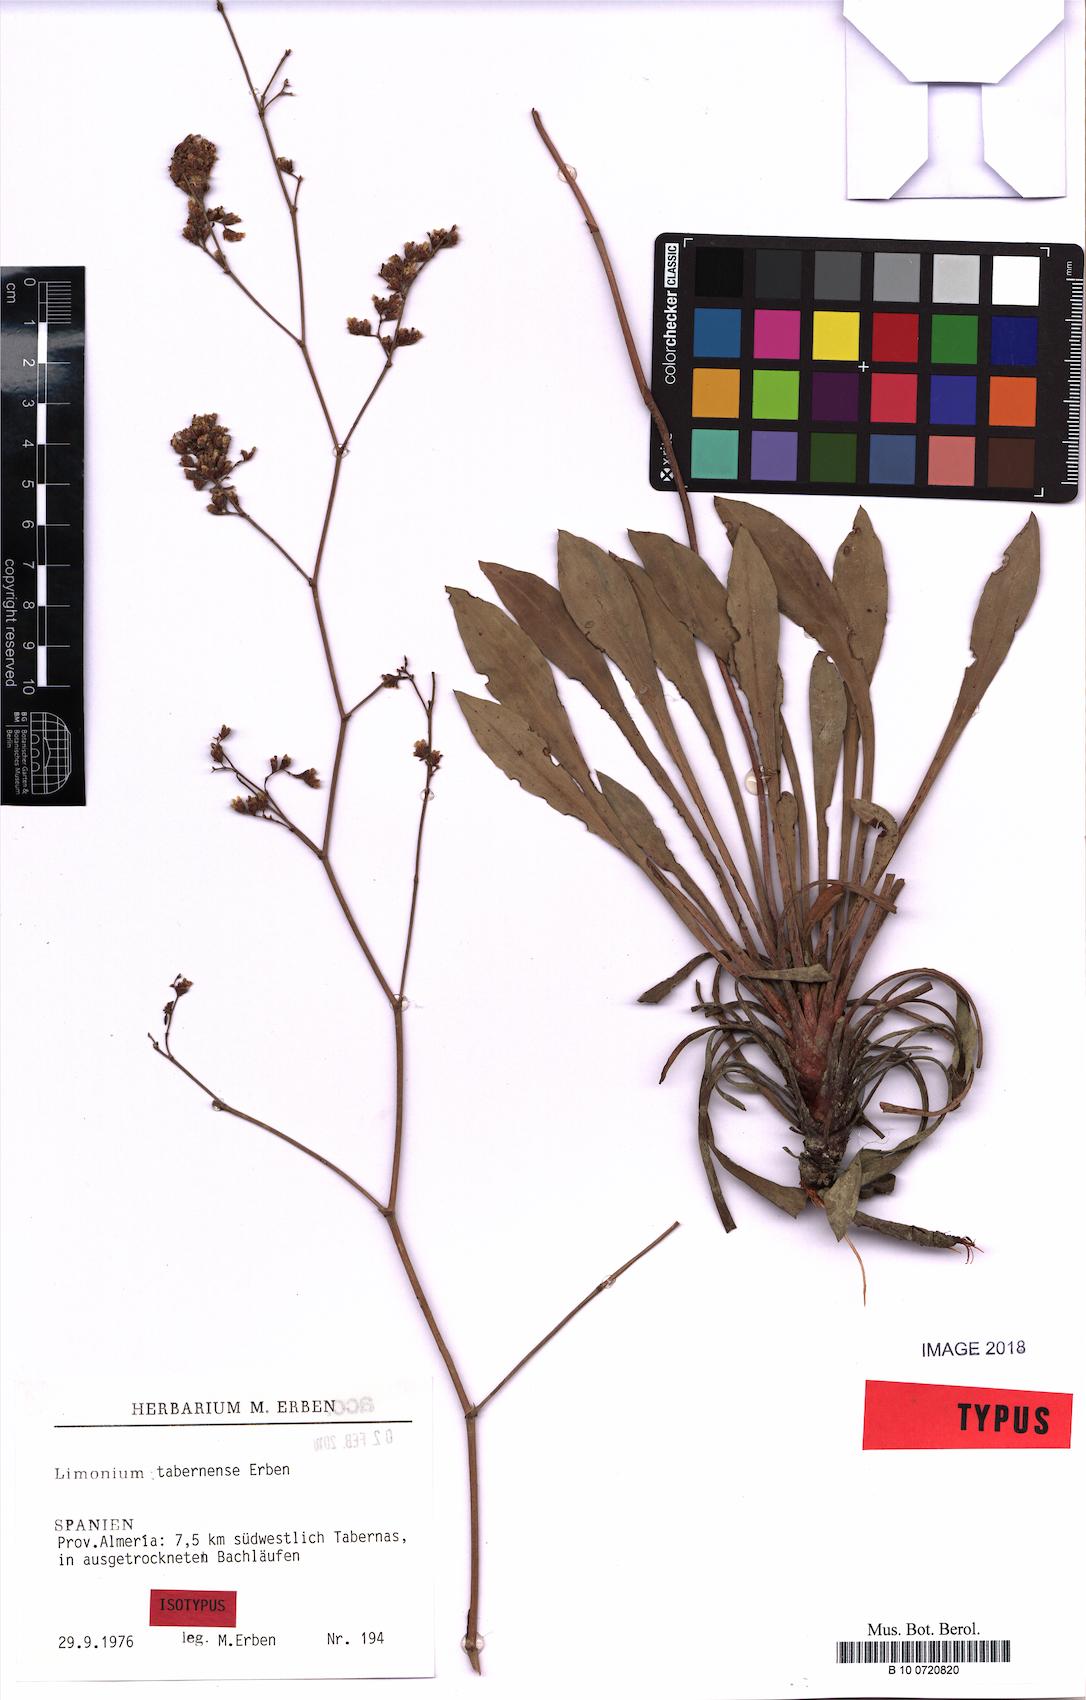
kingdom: Plantae
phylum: Tracheophyta
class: Magnoliopsida
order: Caryophyllales
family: Plumbaginaceae
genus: Limonium
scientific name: Limonium tabernense
